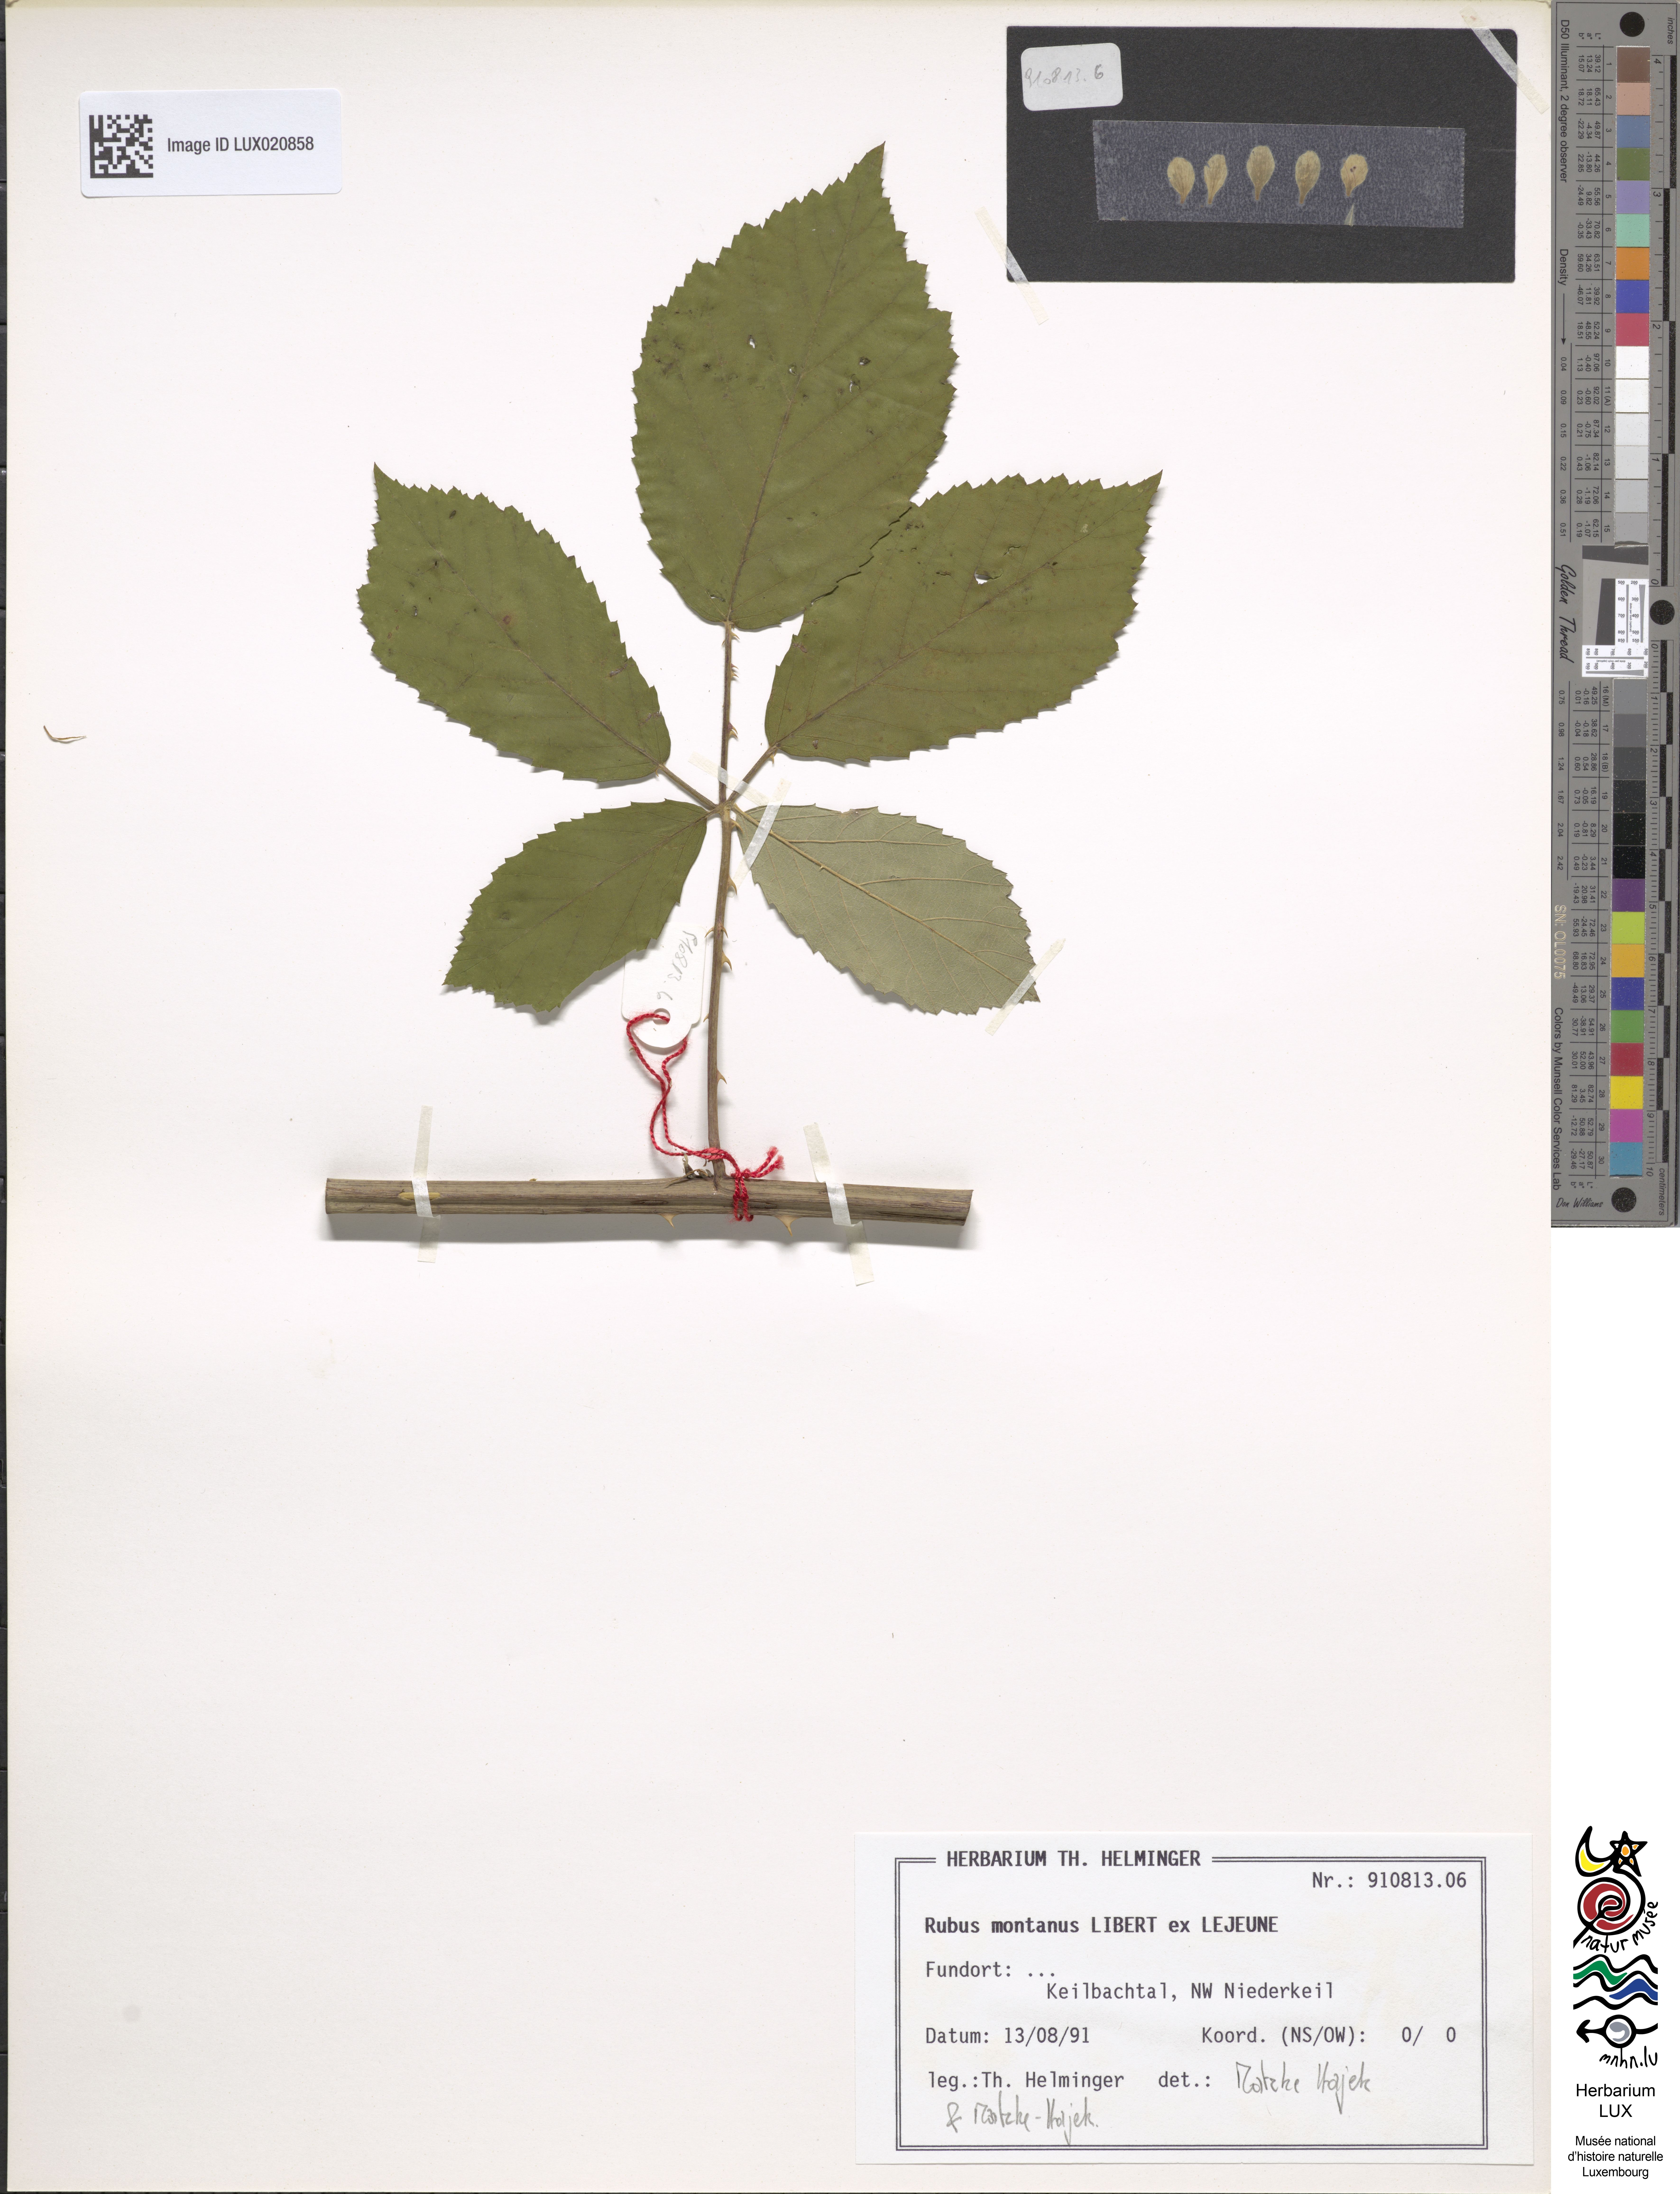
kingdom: Plantae
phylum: Tracheophyta
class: Magnoliopsida
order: Rosales
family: Rosaceae
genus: Rubus
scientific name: Rubus montanus
